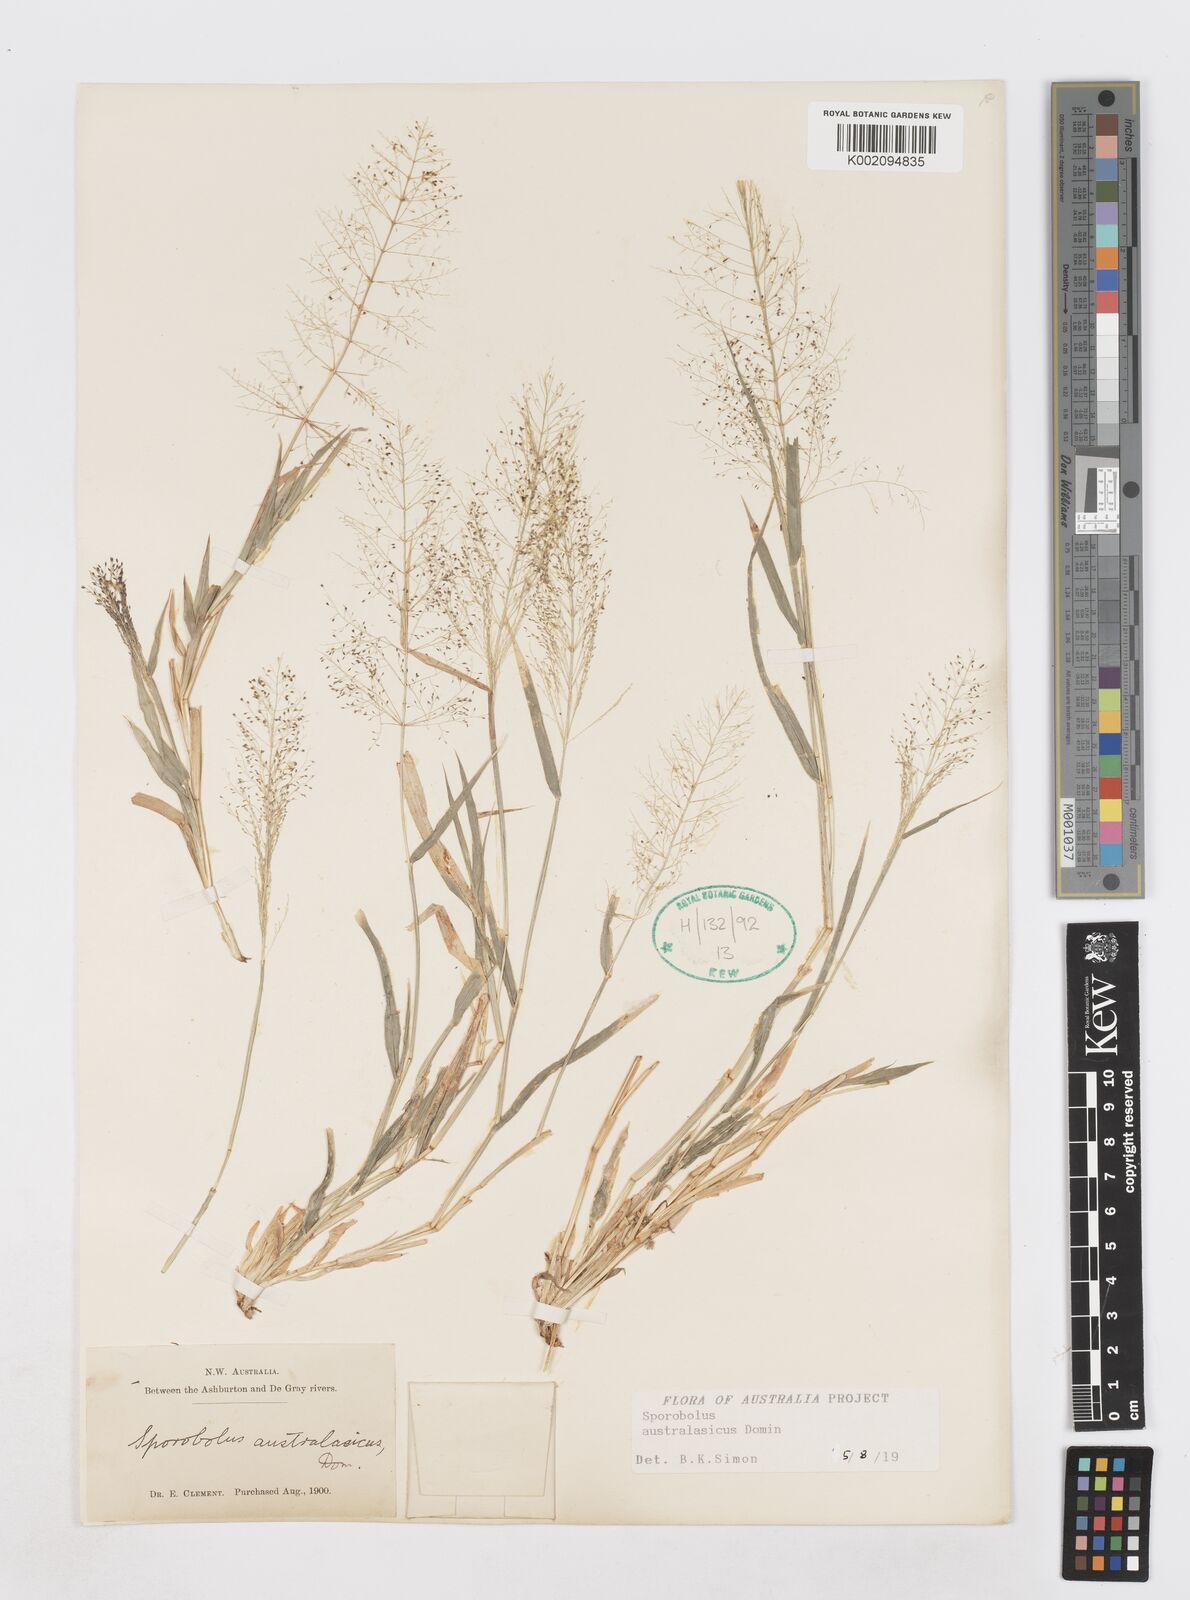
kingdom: Plantae
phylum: Tracheophyta
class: Liliopsida
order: Poales
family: Poaceae
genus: Sporobolus
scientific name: Sporobolus australasicus
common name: Australian dropseed
